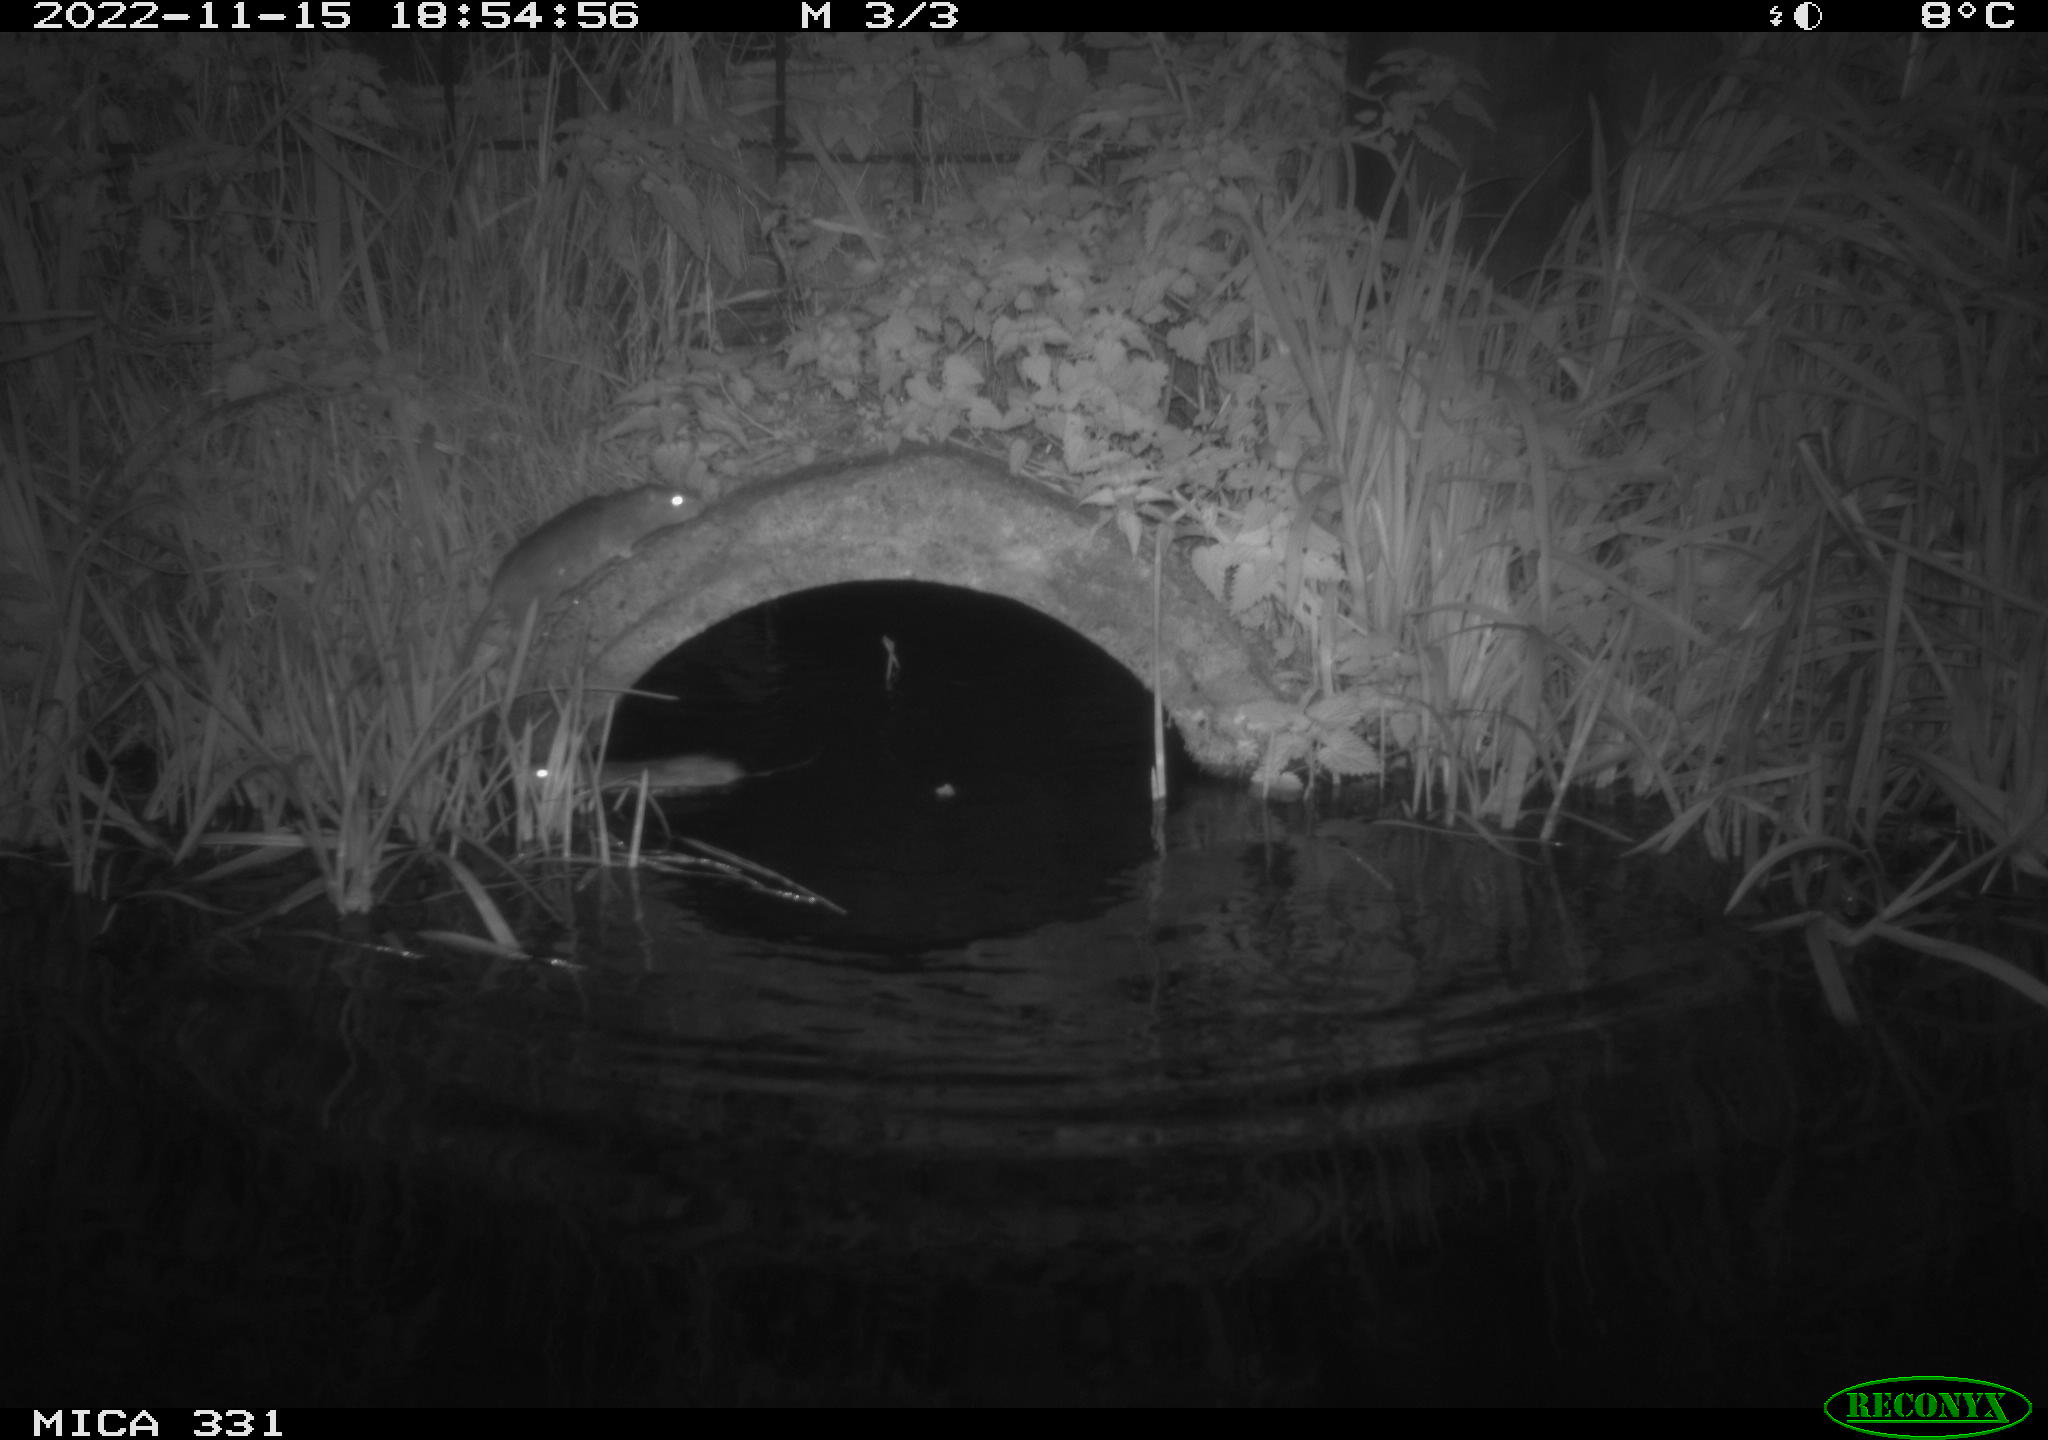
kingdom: Animalia
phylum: Chordata
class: Mammalia
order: Rodentia
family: Muridae
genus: Rattus
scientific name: Rattus norvegicus
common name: Brown rat
